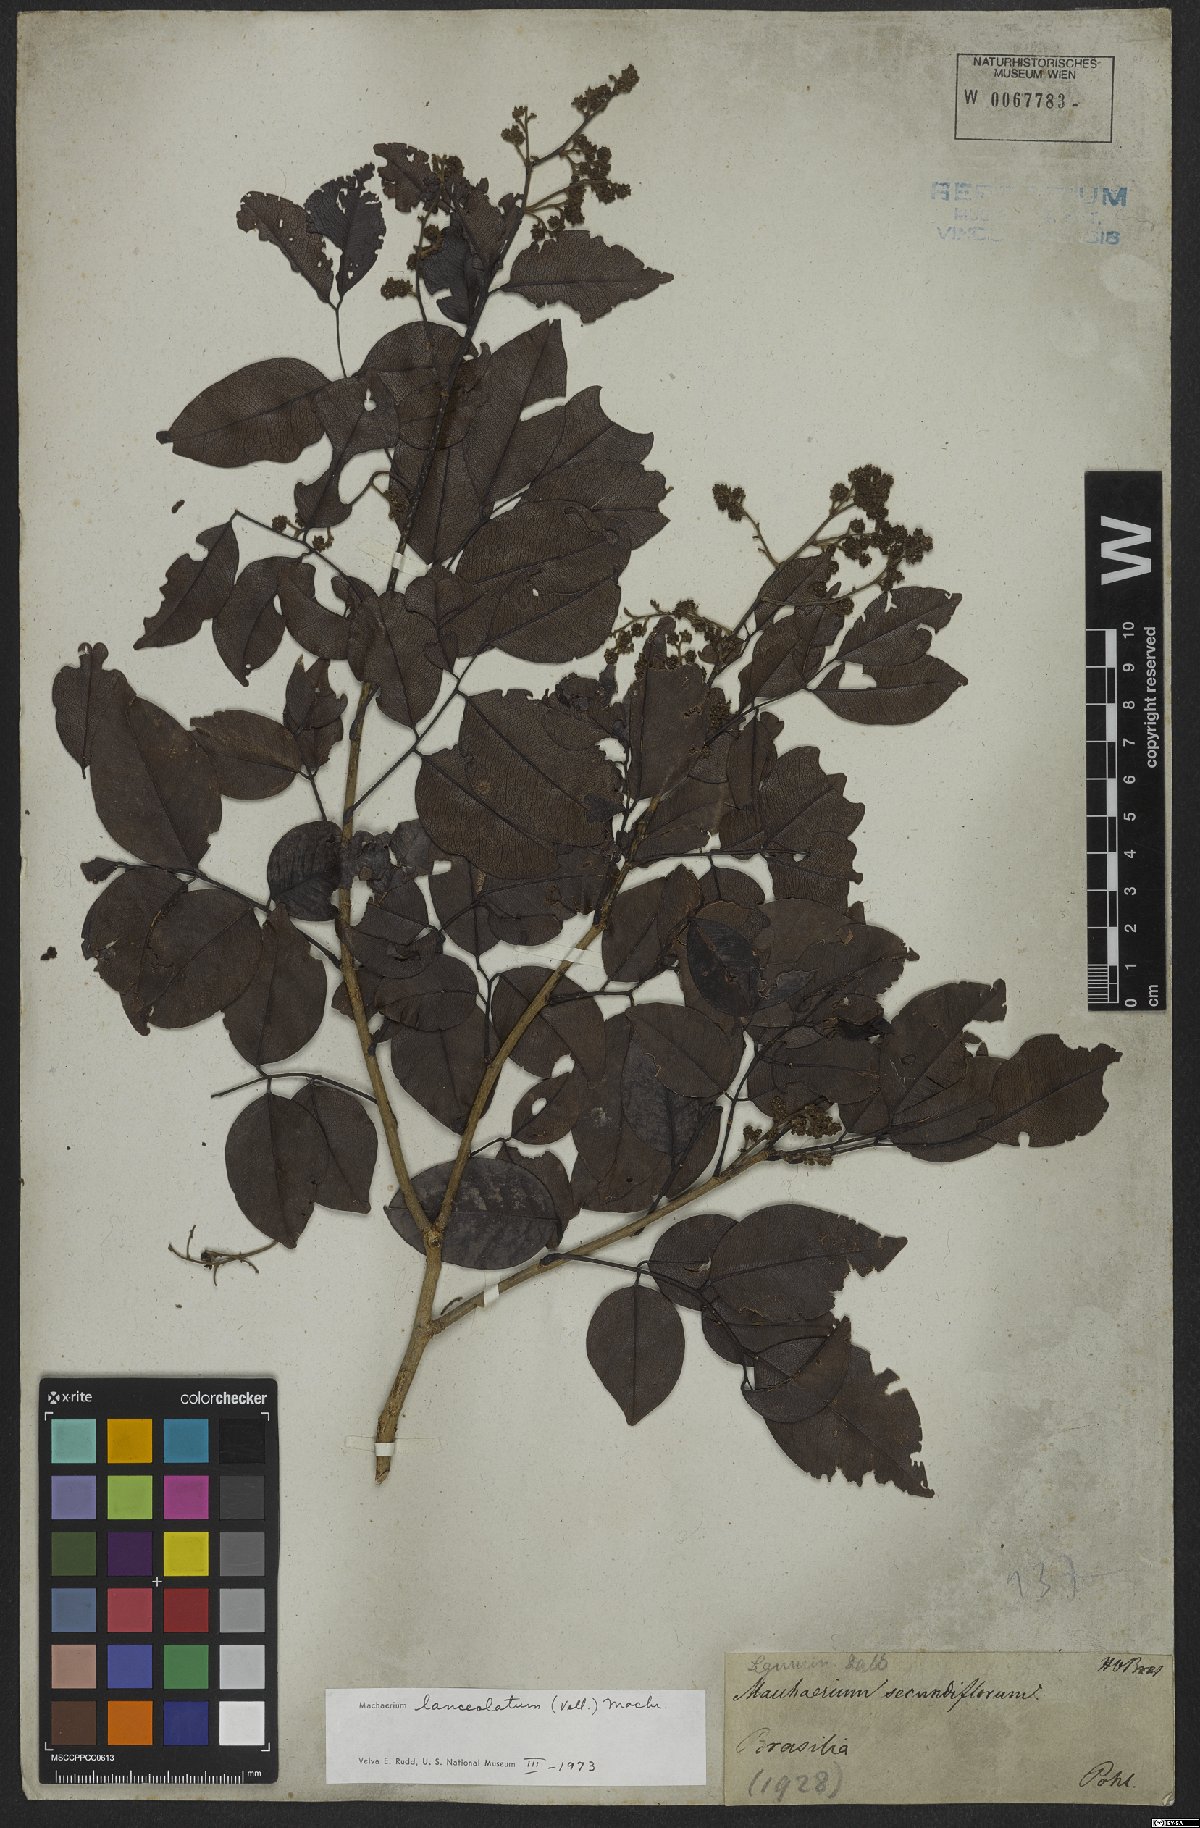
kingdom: Plantae
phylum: Tracheophyta
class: Magnoliopsida
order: Fabales
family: Fabaceae
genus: Machaerium
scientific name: Machaerium lanceolatum
